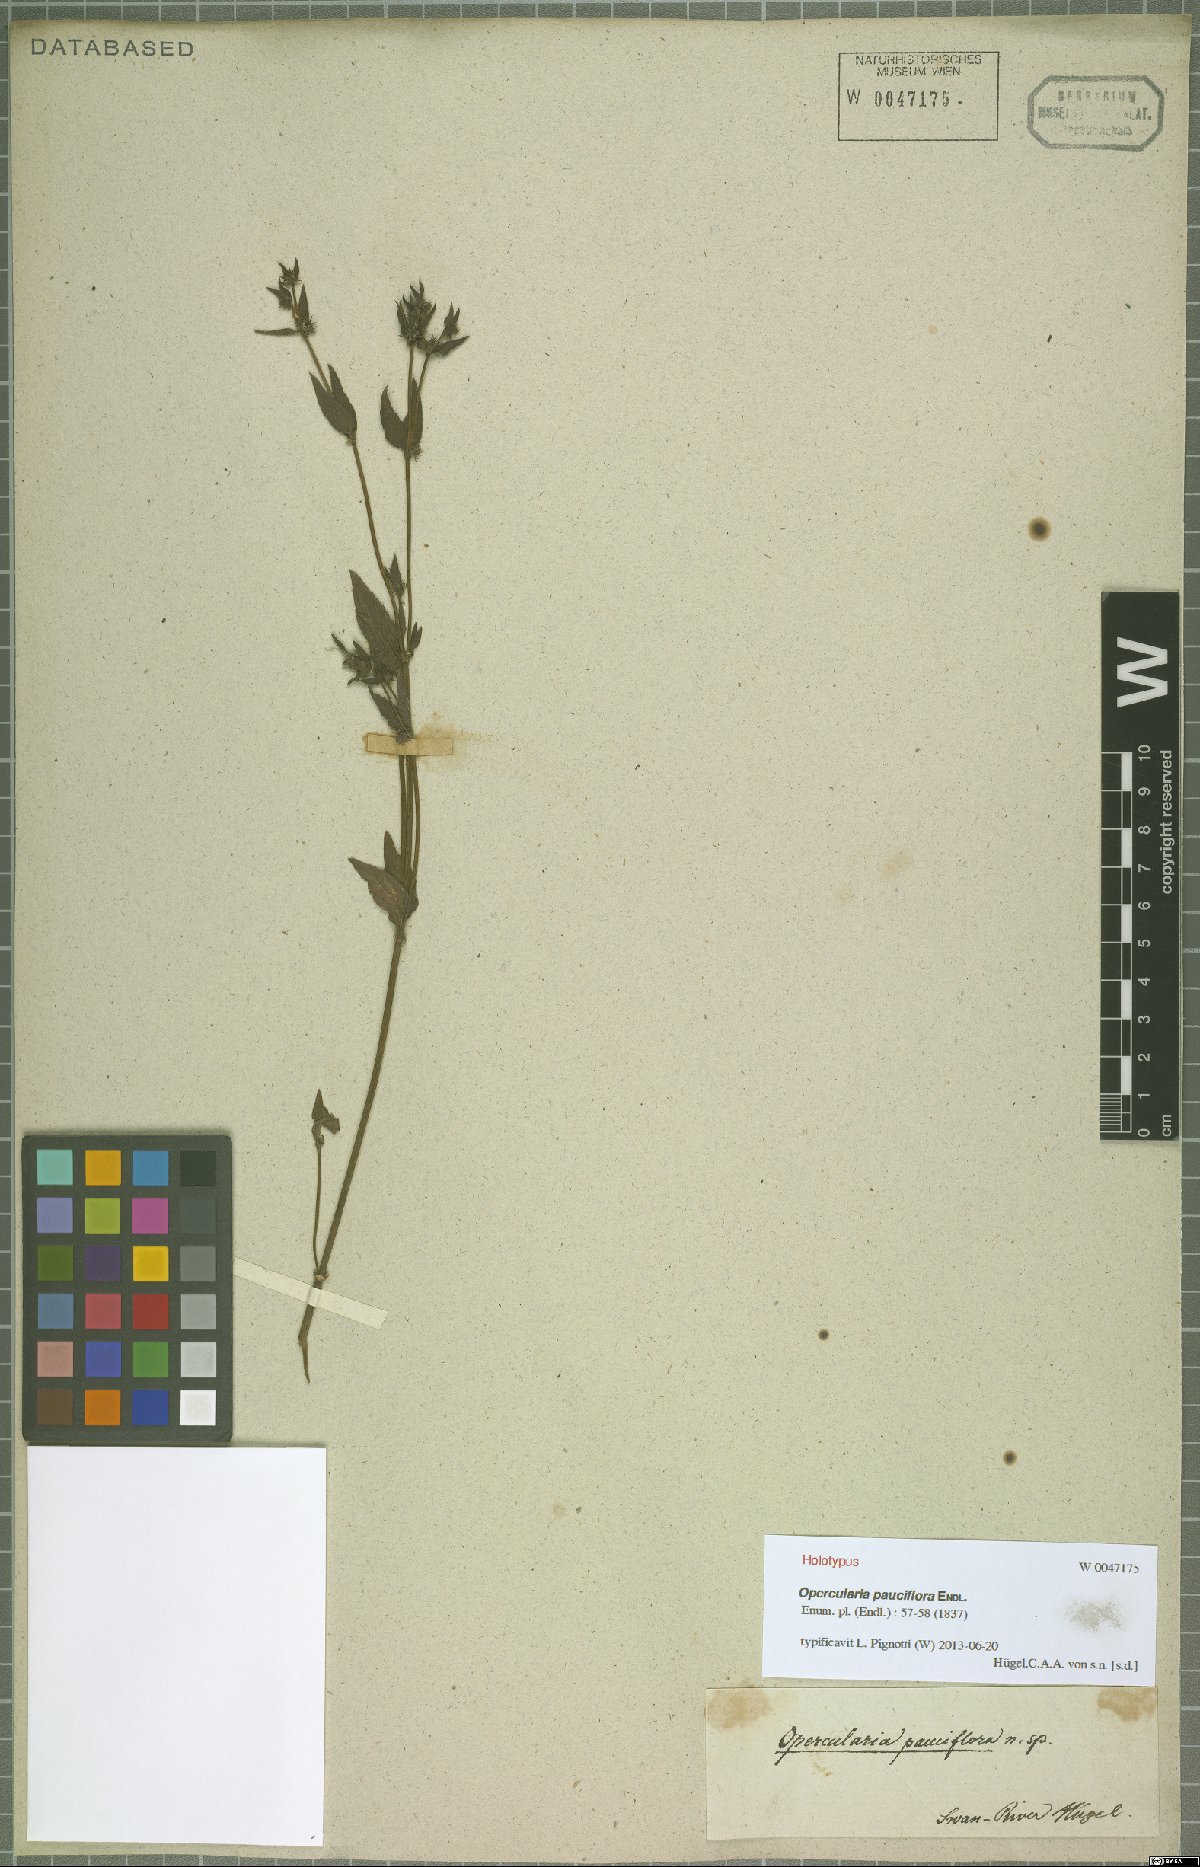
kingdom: Plantae
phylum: Tracheophyta
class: Magnoliopsida
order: Gentianales
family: Rubiaceae
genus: Opercularia
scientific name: Opercularia hispidula
